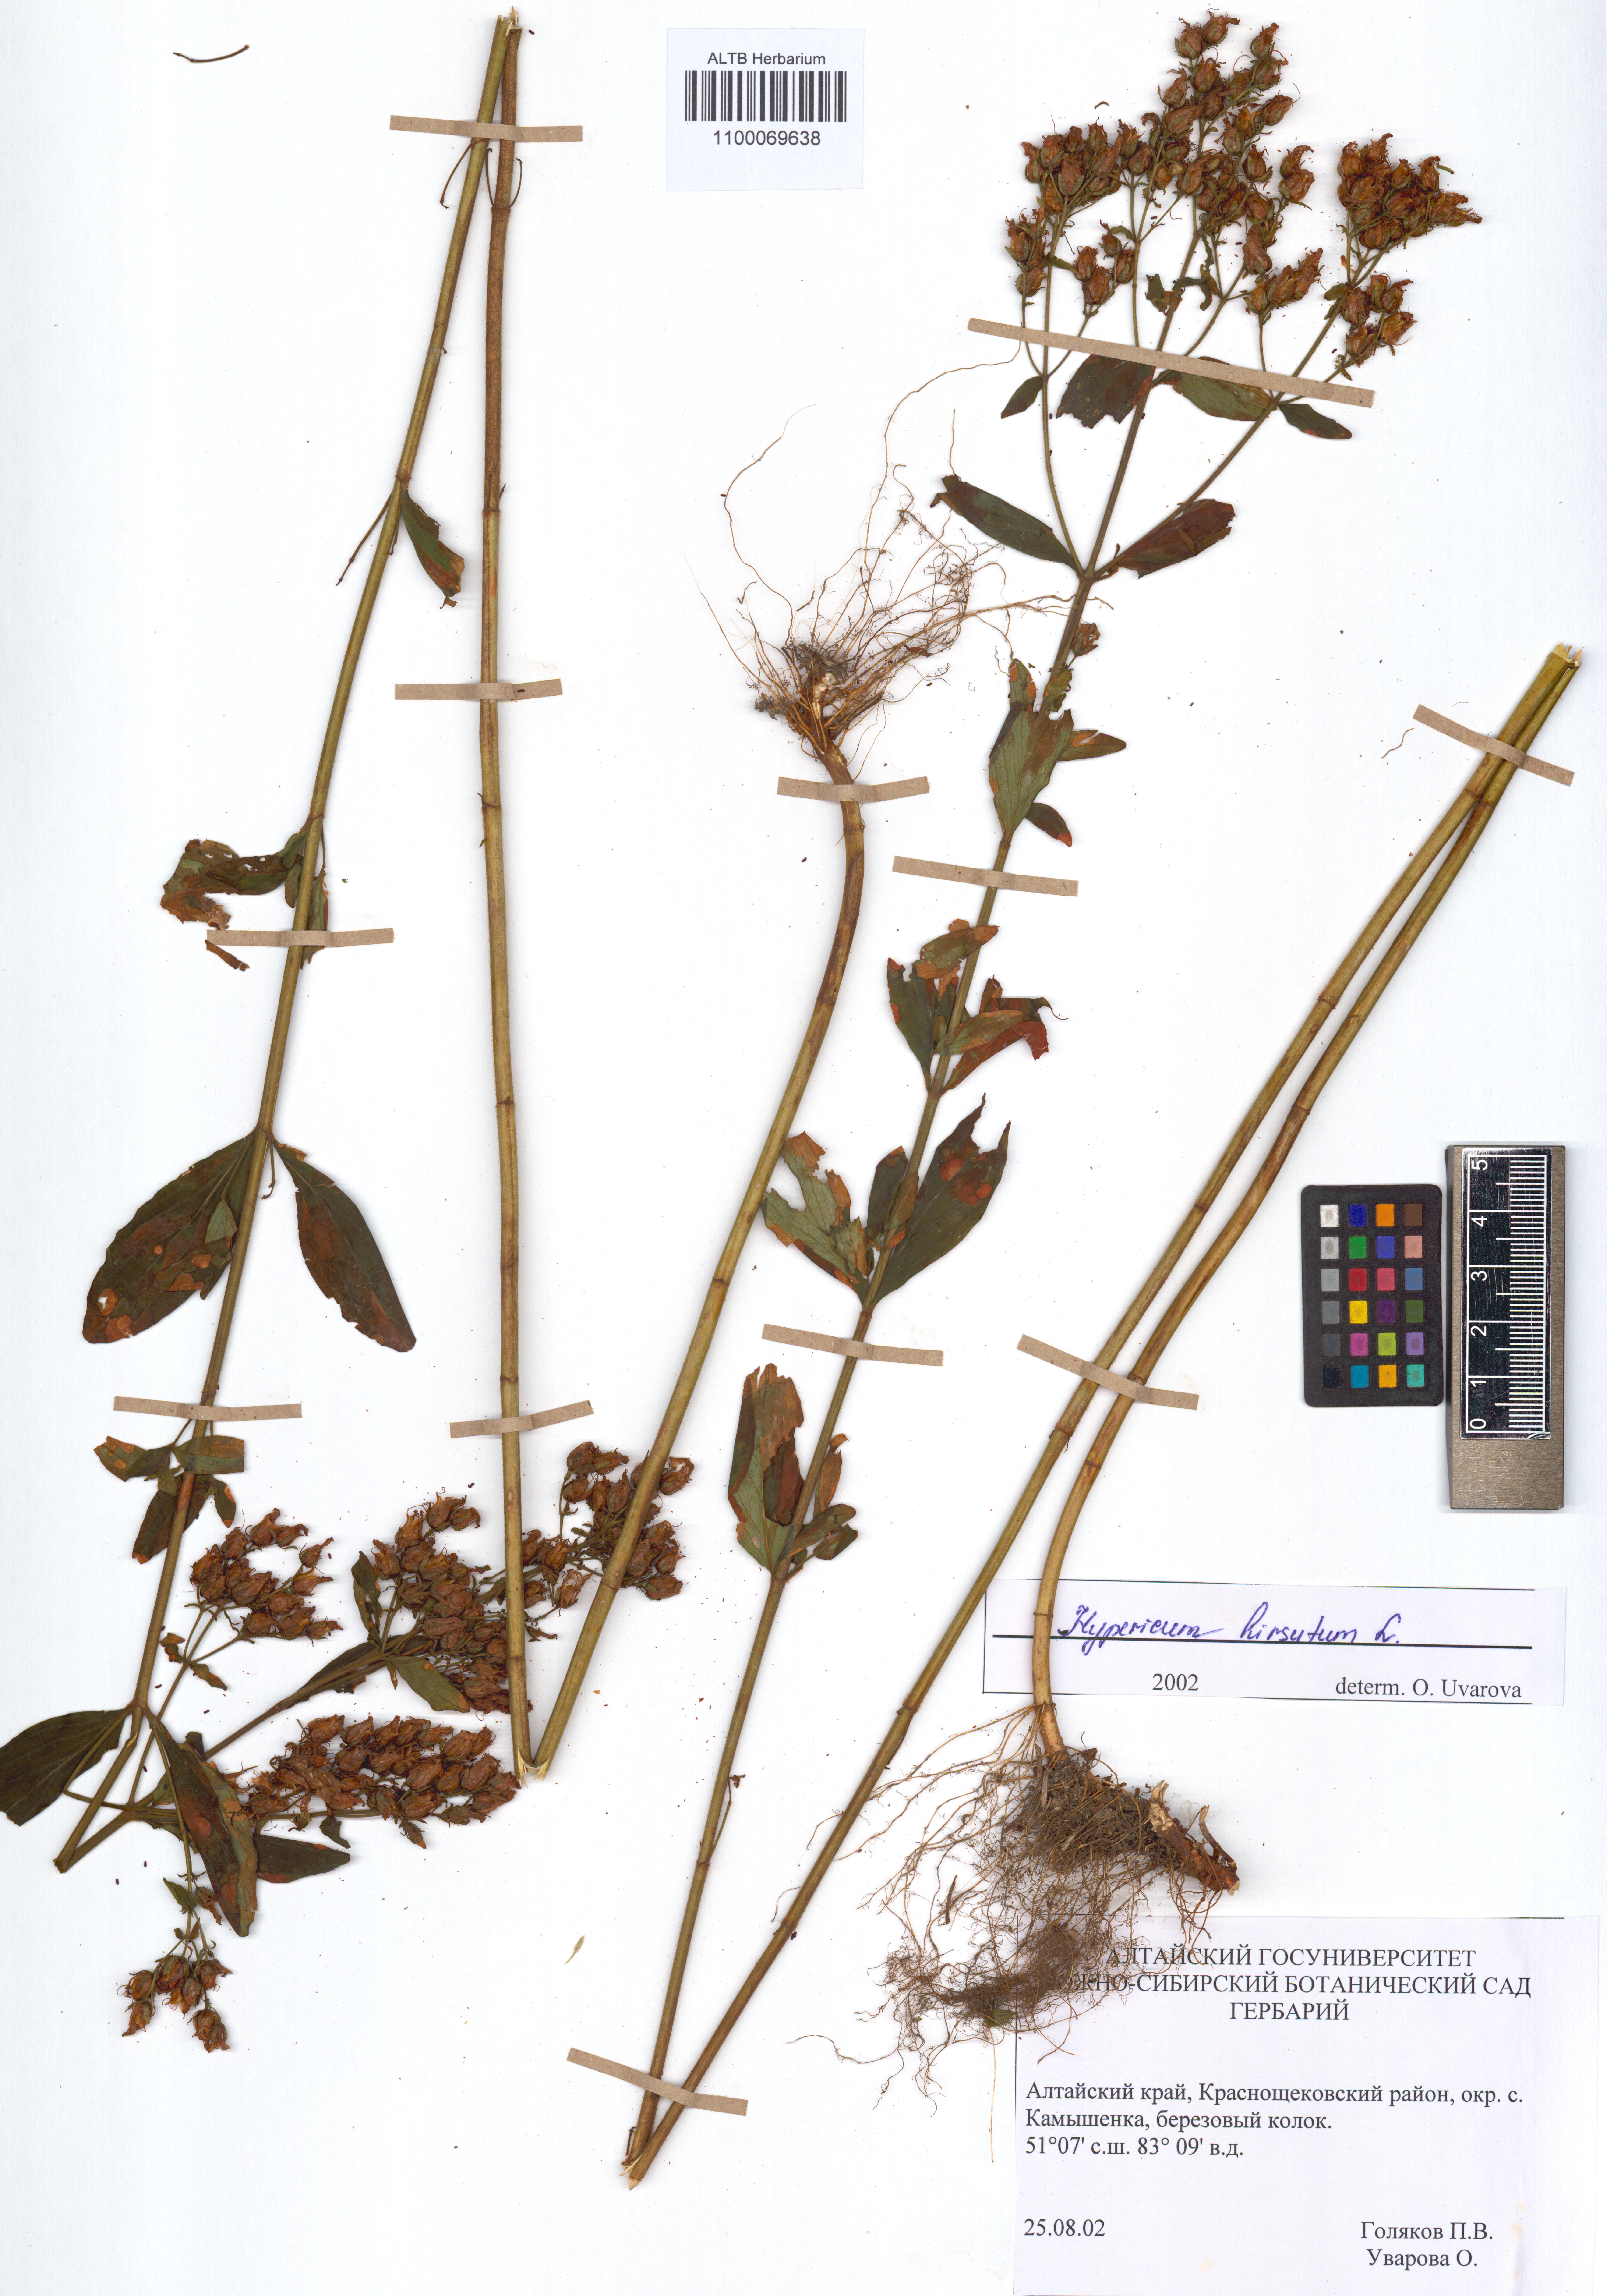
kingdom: Plantae
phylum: Tracheophyta
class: Magnoliopsida
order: Malpighiales
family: Hypericaceae
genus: Hypericum
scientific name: Hypericum hirsutum
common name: Hairy st. john's-wort
